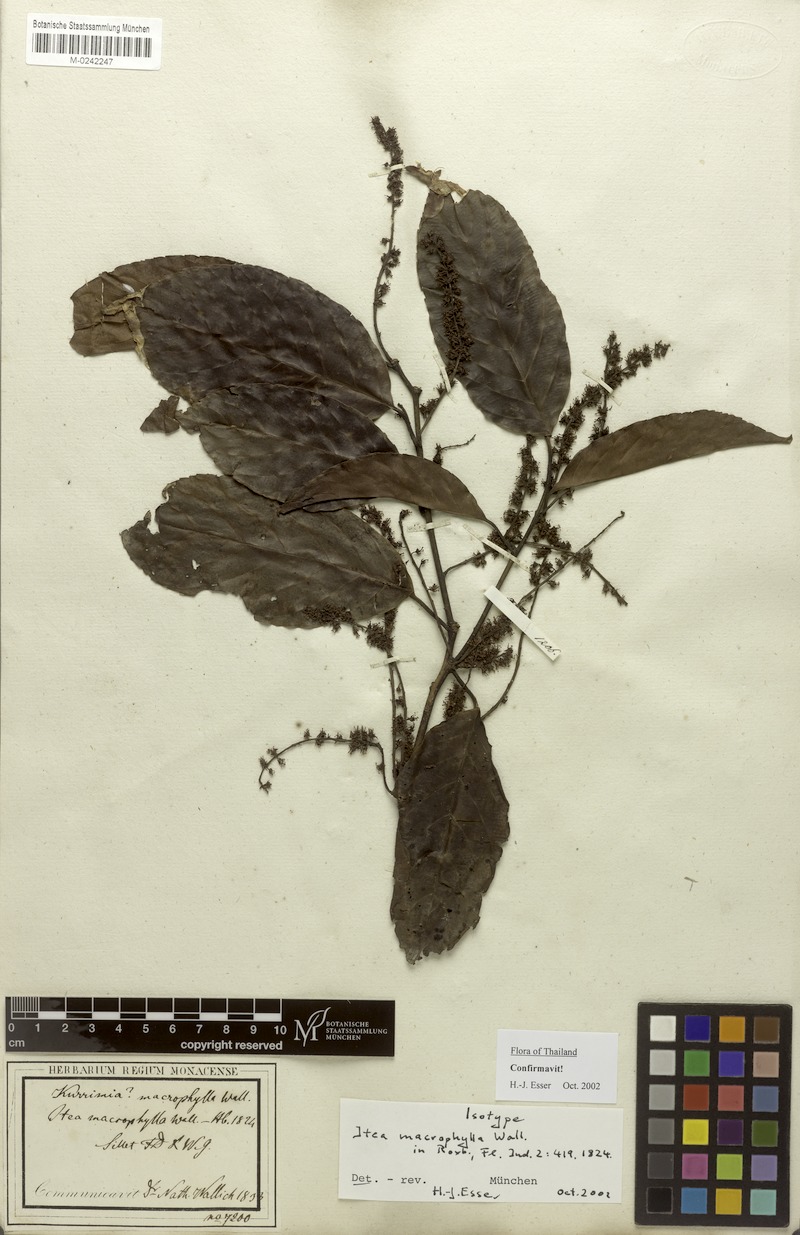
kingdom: Plantae
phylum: Tracheophyta
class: Magnoliopsida
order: Saxifragales
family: Iteaceae
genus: Itea
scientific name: Itea macrophylla
